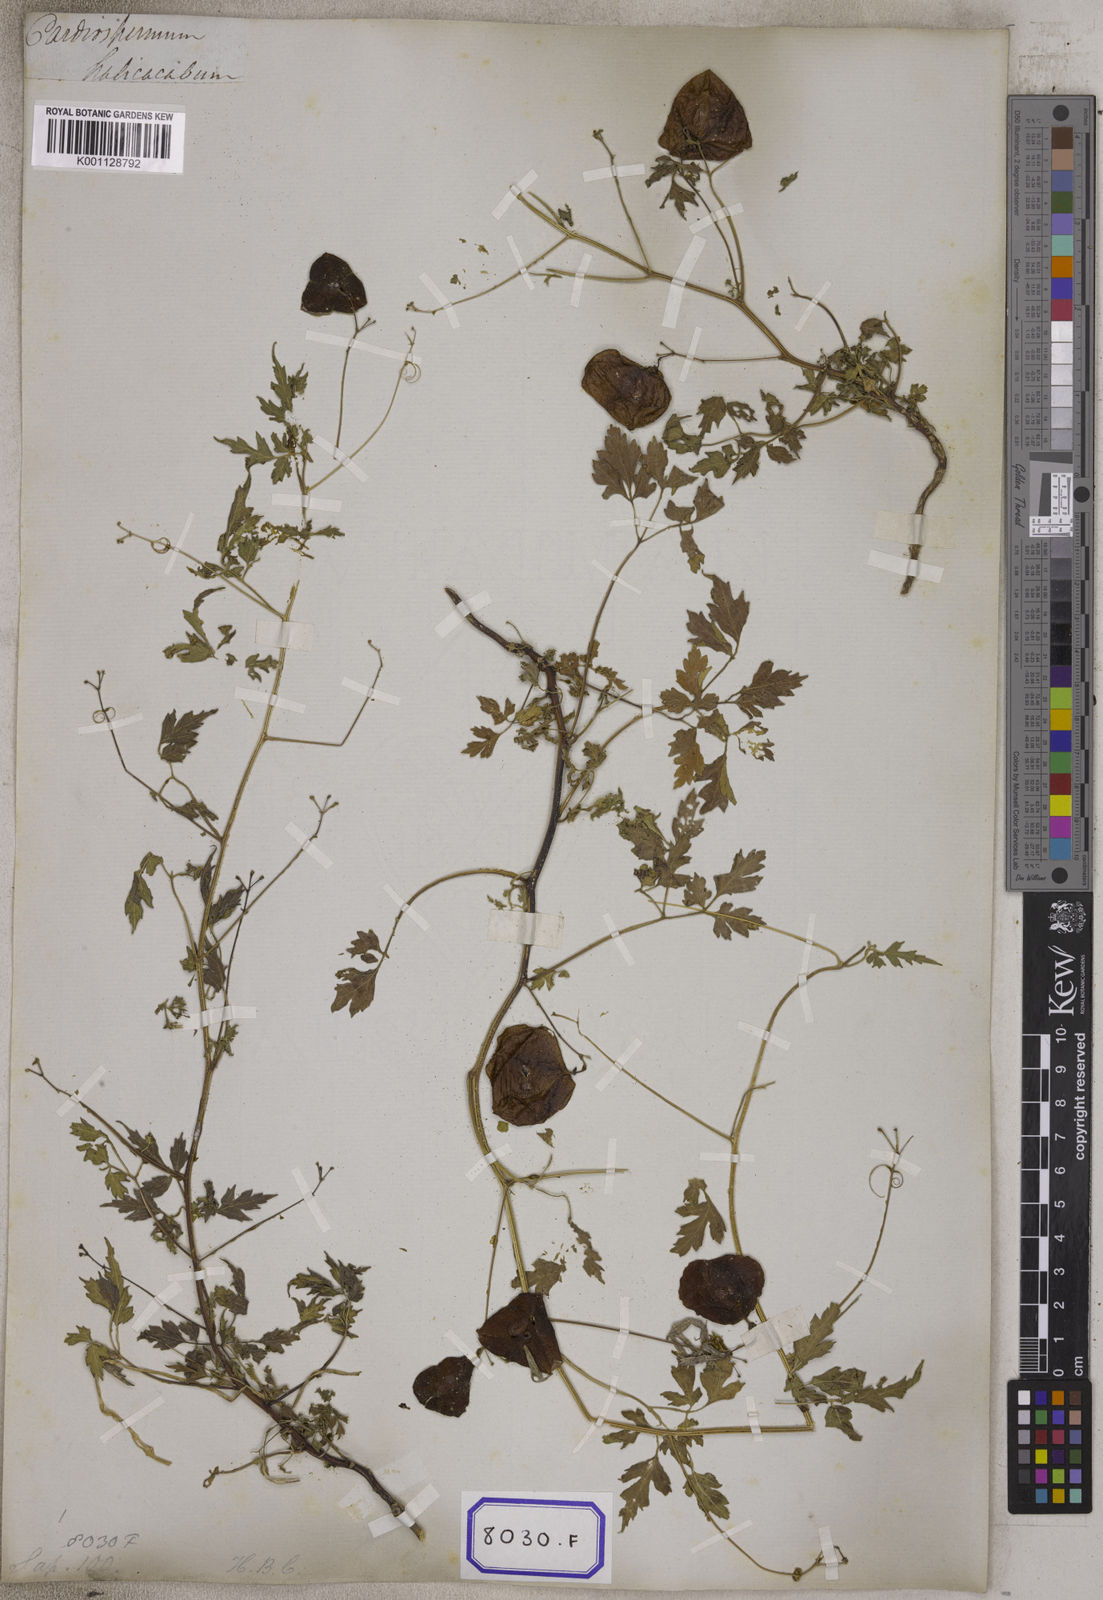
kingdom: Plantae
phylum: Tracheophyta
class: Magnoliopsida
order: Sapindales
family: Sapindaceae
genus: Cardiospermum
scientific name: Cardiospermum halicacabum
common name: Balloon vine
